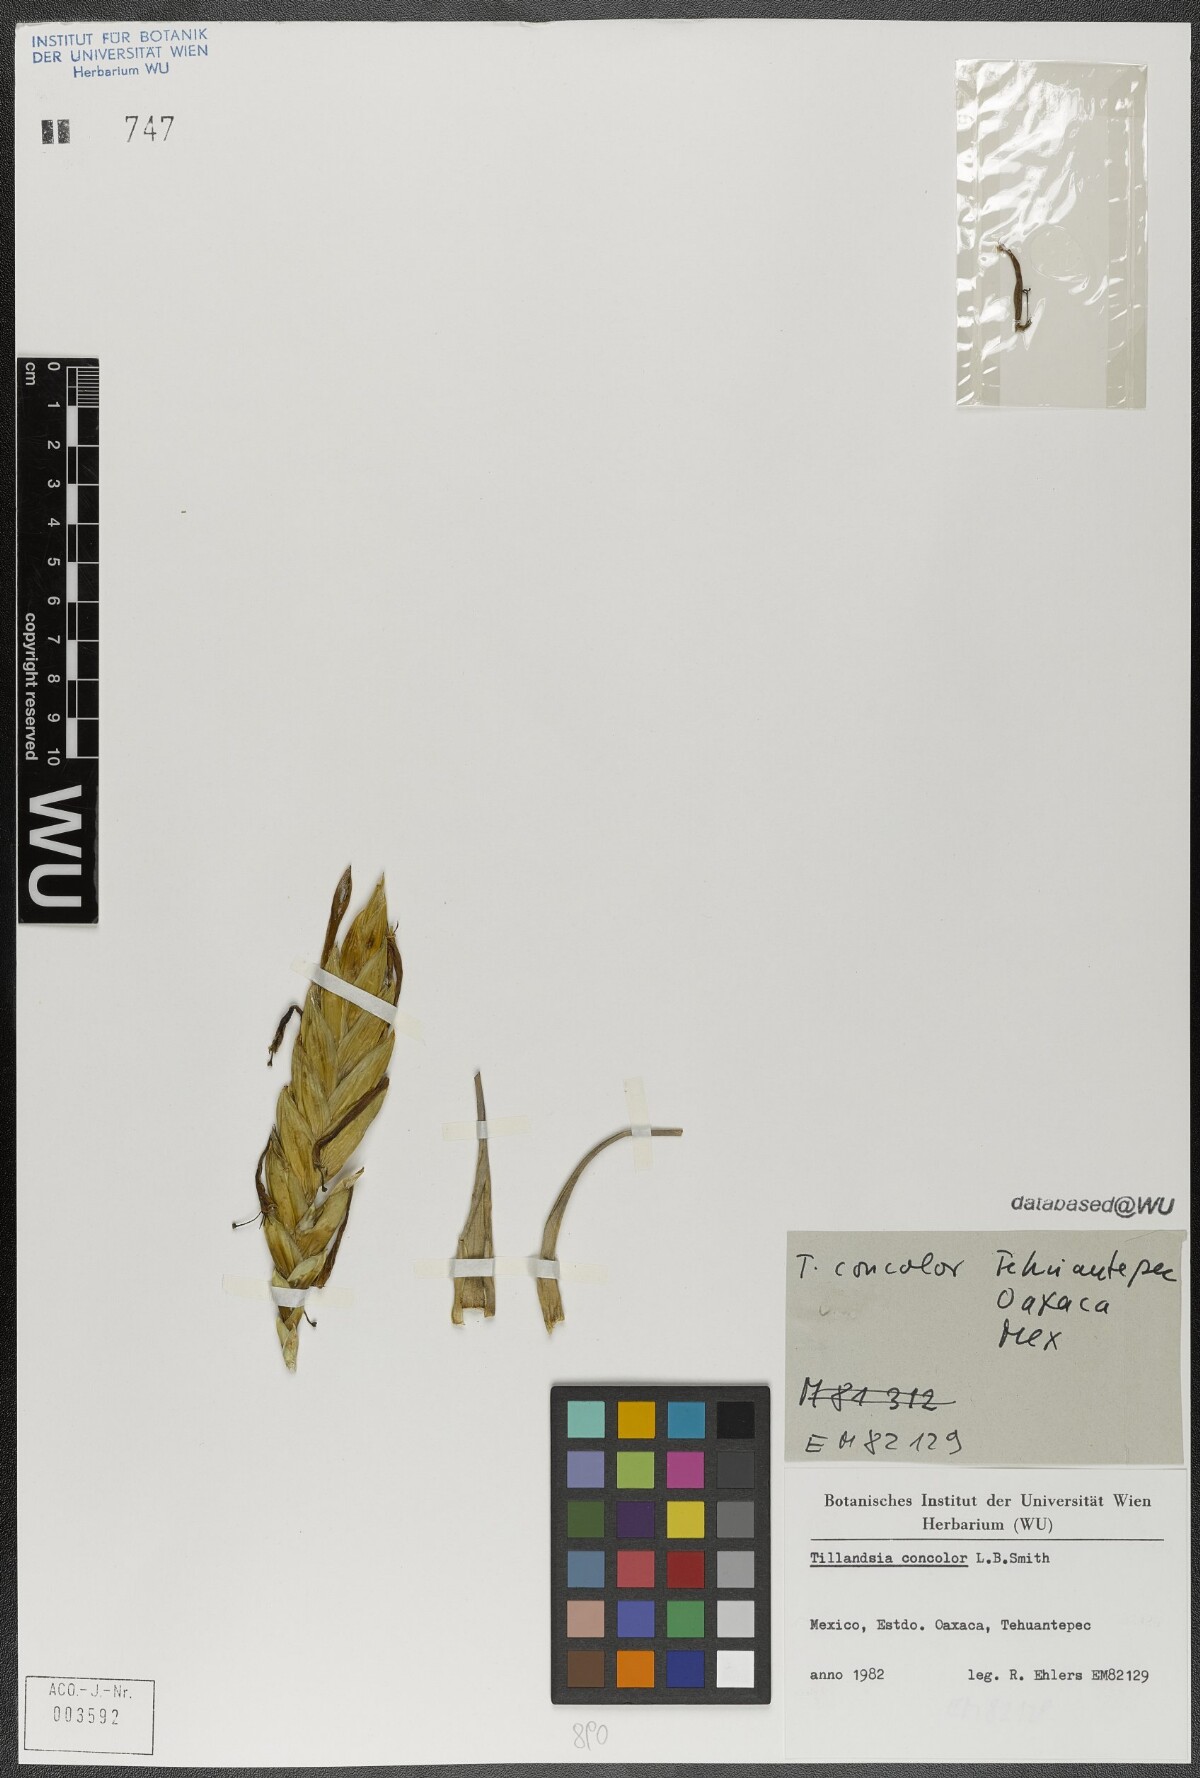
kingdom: Plantae
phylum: Tracheophyta
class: Liliopsida
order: Poales
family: Bromeliaceae
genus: Tillandsia
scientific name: Tillandsia concolor
